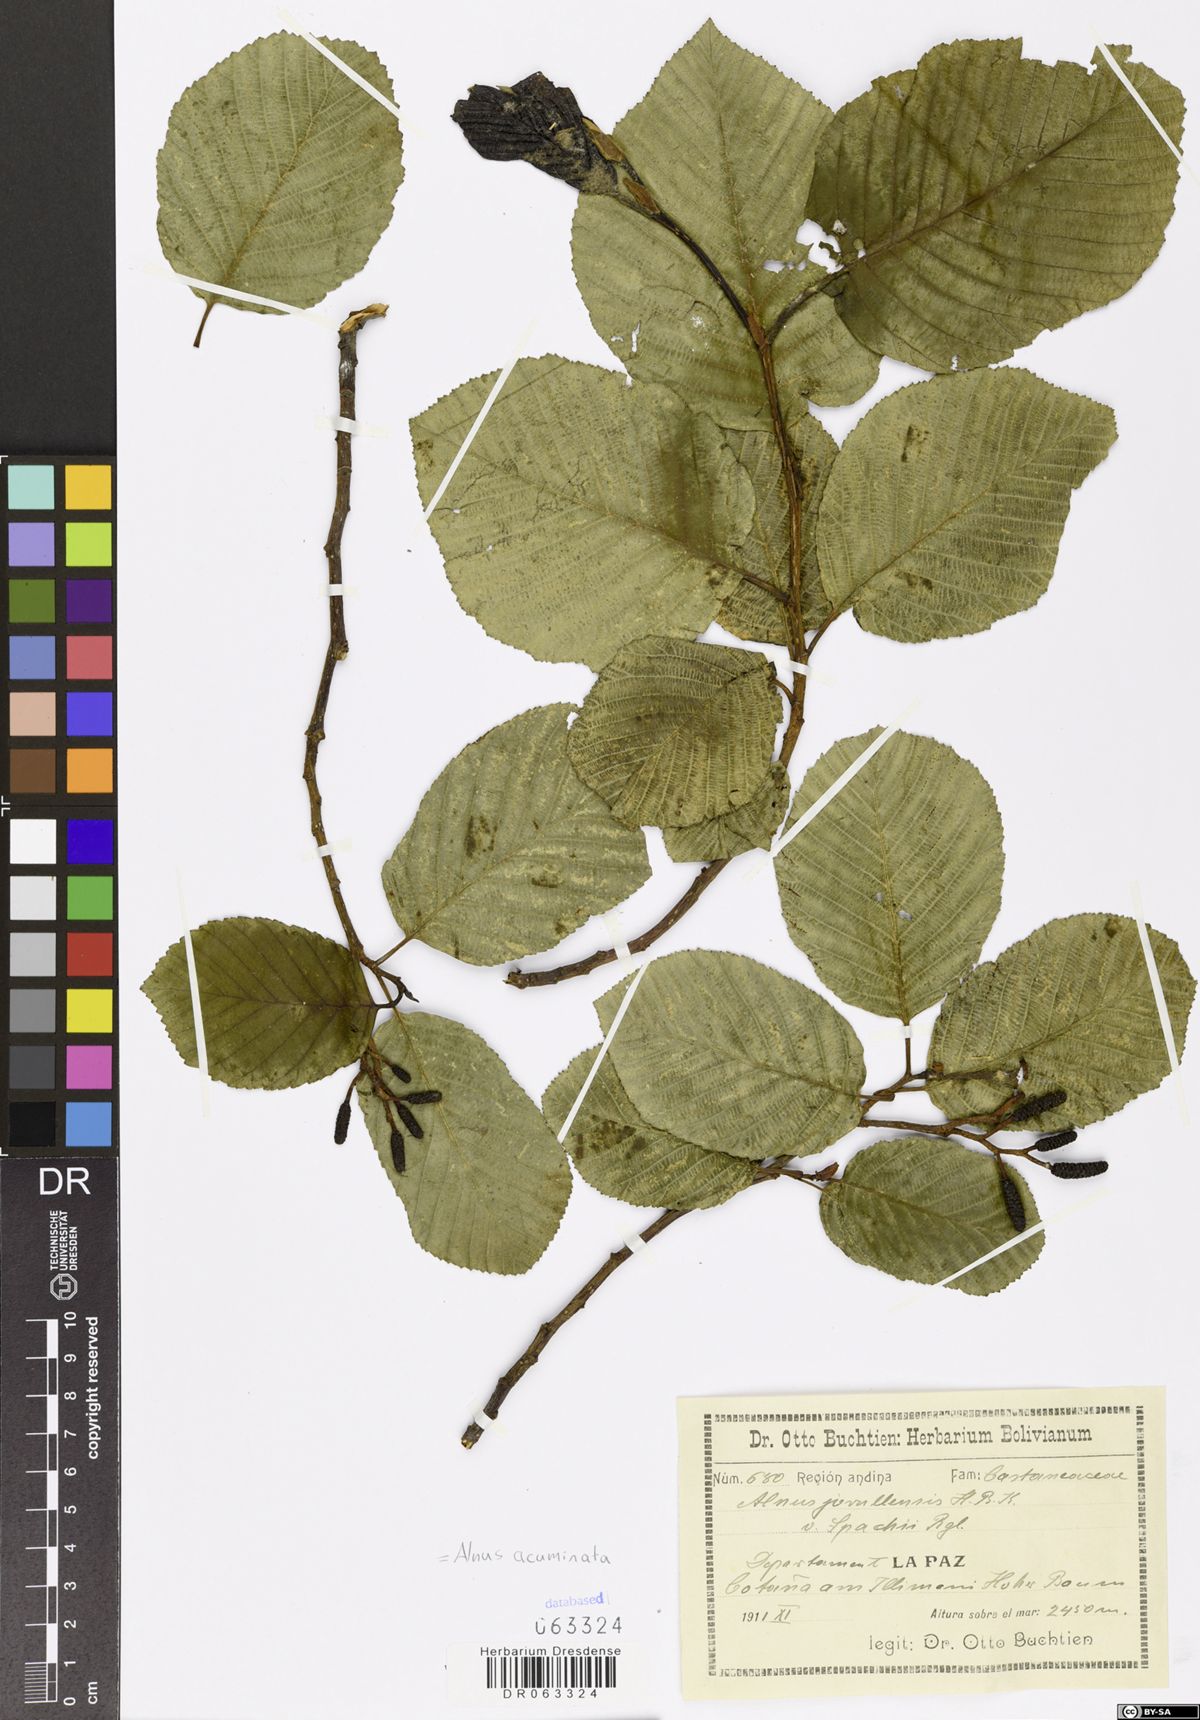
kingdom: Plantae
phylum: Tracheophyta
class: Magnoliopsida
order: Fagales
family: Betulaceae
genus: Alnus
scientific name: Alnus acuminata
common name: Alder
